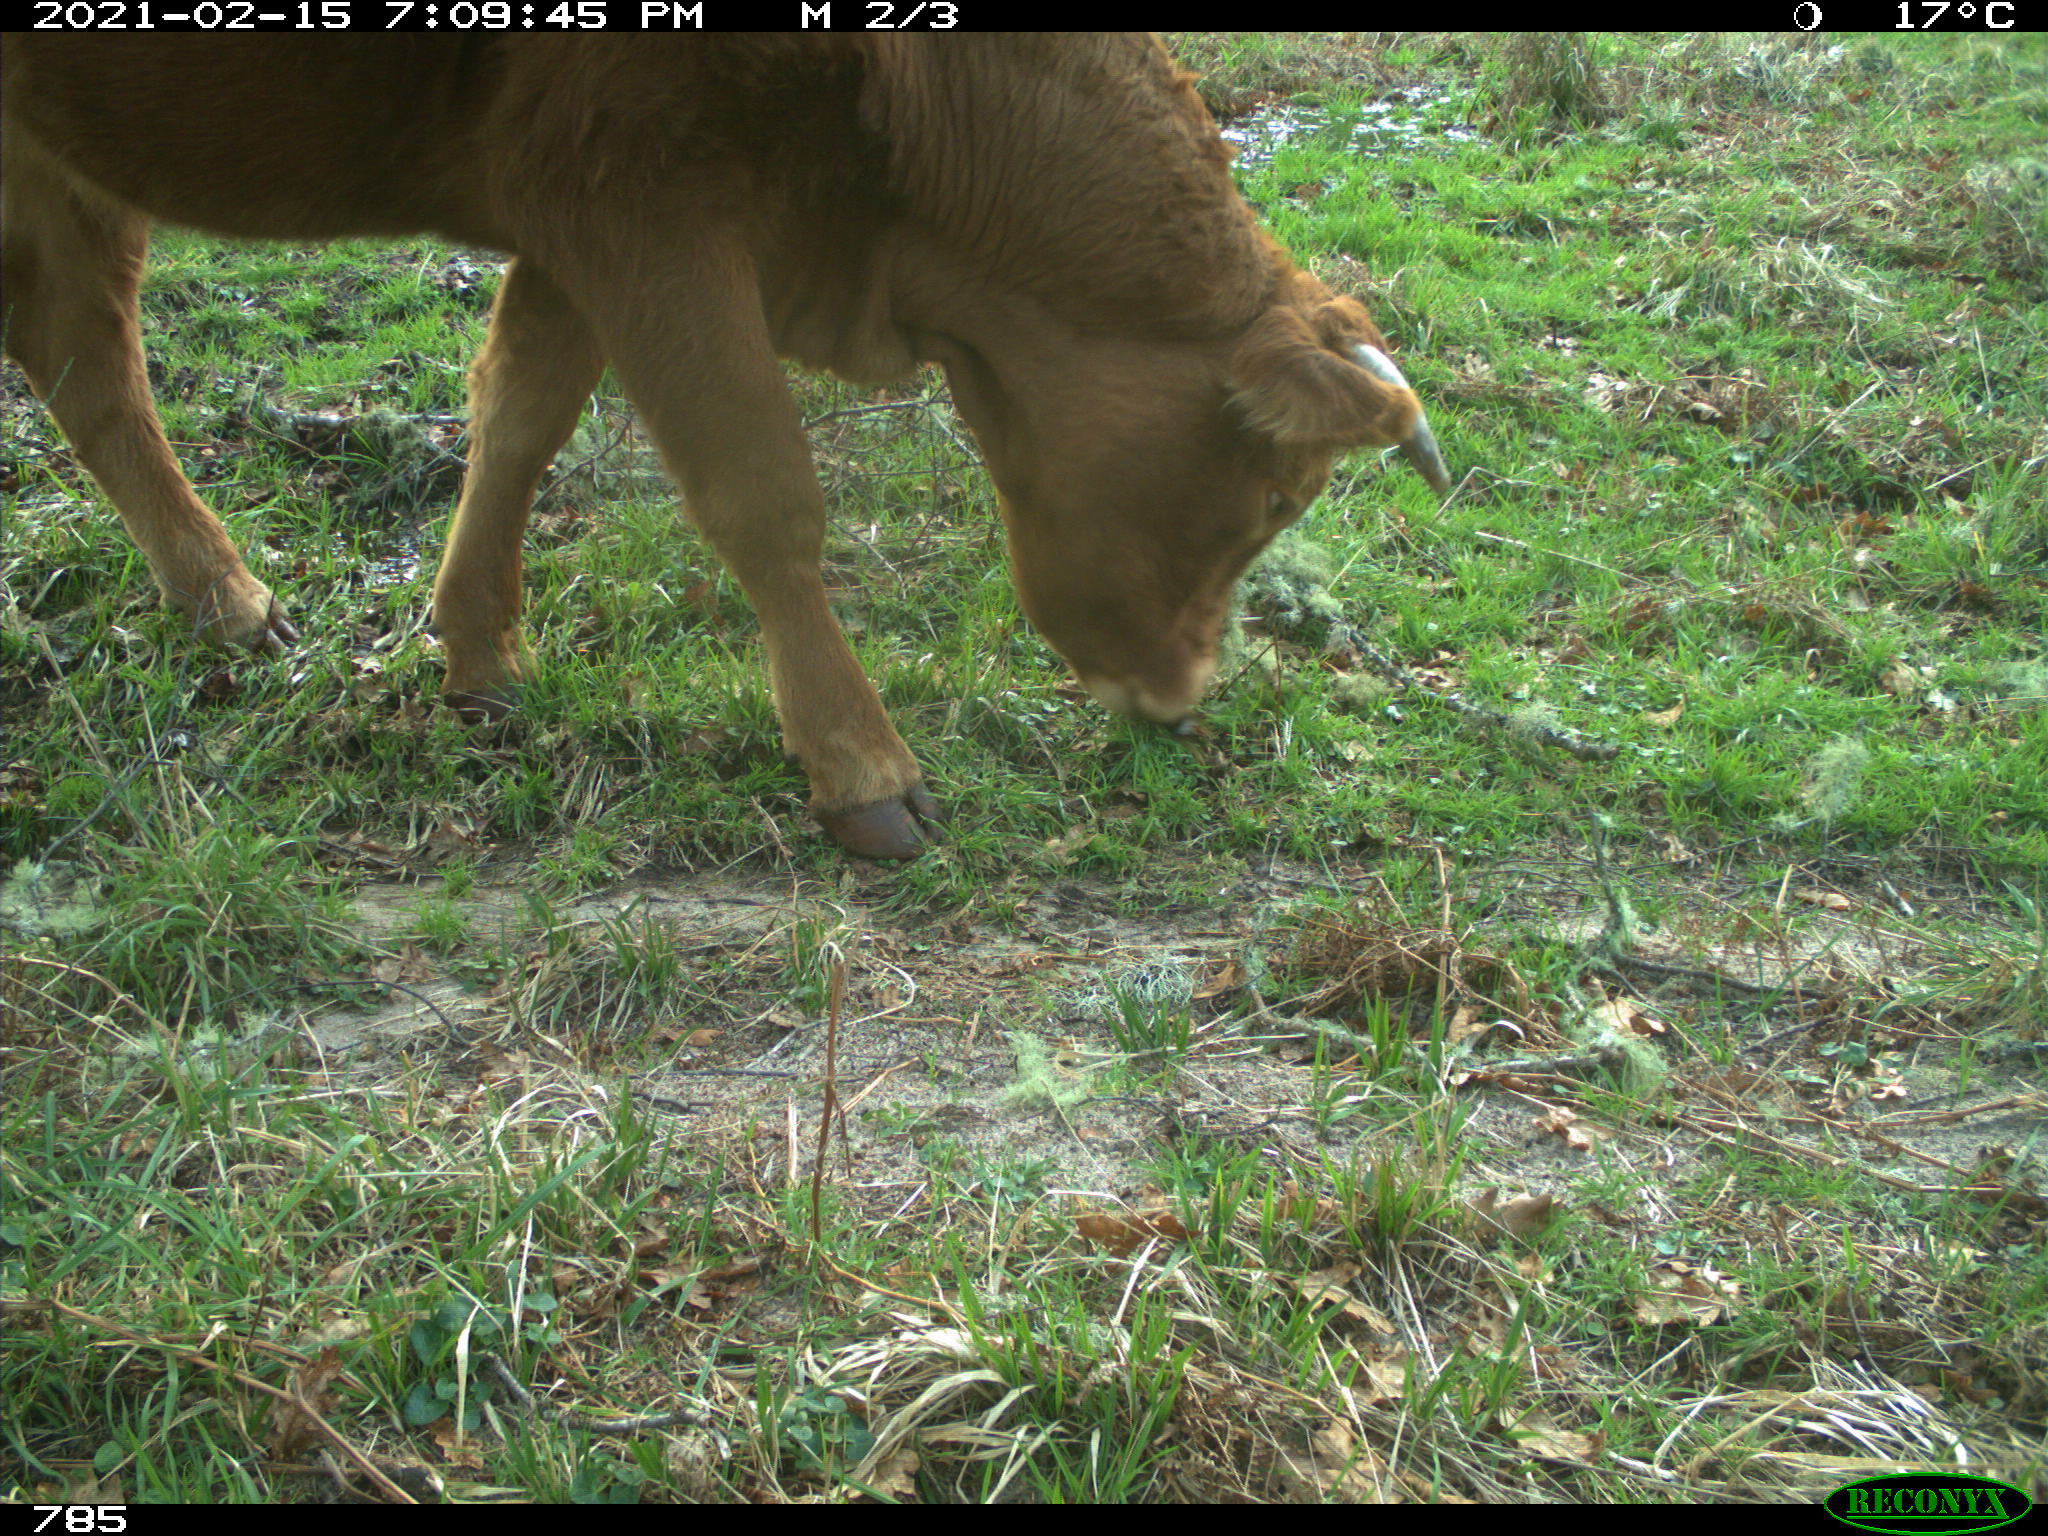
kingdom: Animalia
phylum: Chordata
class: Mammalia
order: Artiodactyla
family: Bovidae
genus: Bos
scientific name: Bos taurus
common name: Domesticated cattle
